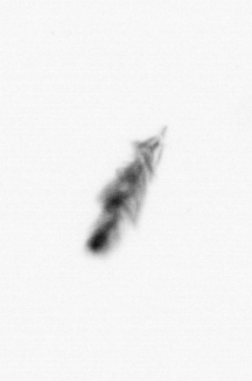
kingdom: Chromista
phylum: Myzozoa
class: Dinophyceae
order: Gonyaulacales
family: Ceratiaceae
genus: Ceratium
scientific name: Ceratium
